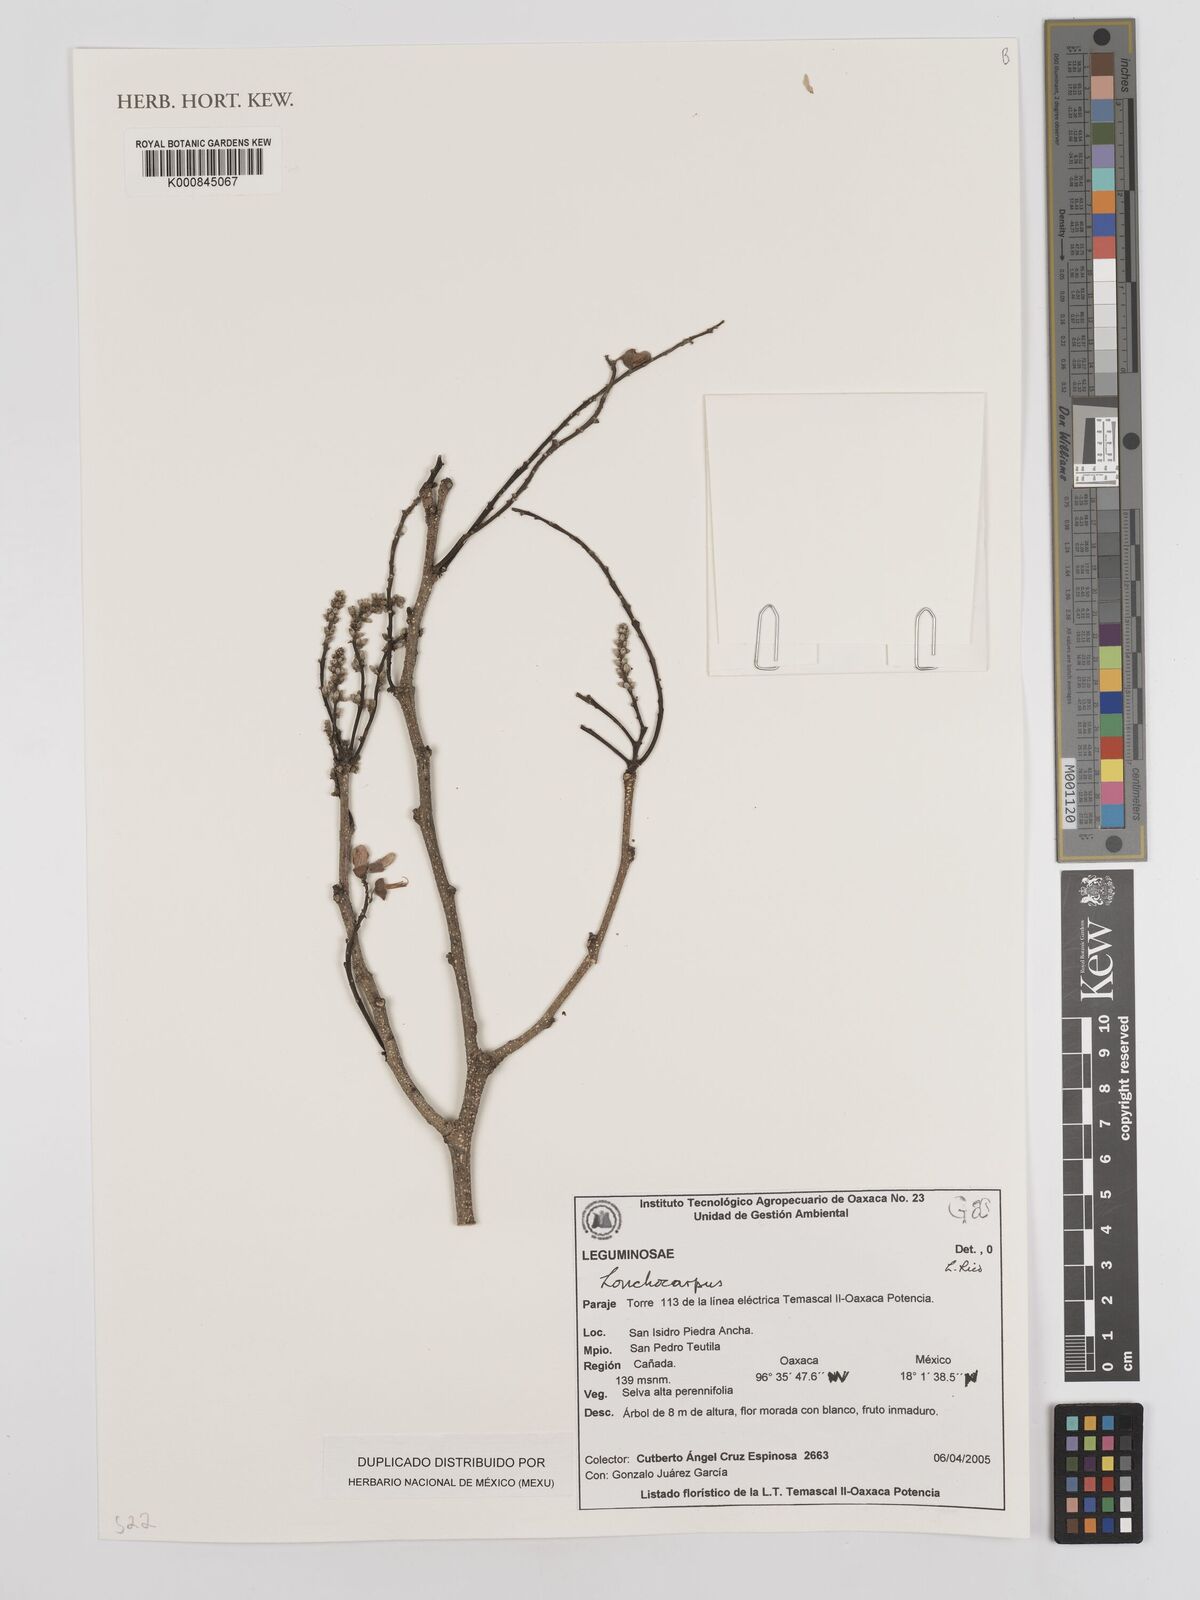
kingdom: Plantae
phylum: Tracheophyta
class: Magnoliopsida
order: Fabales
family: Fabaceae
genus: Lonchocarpus
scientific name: Lonchocarpus
